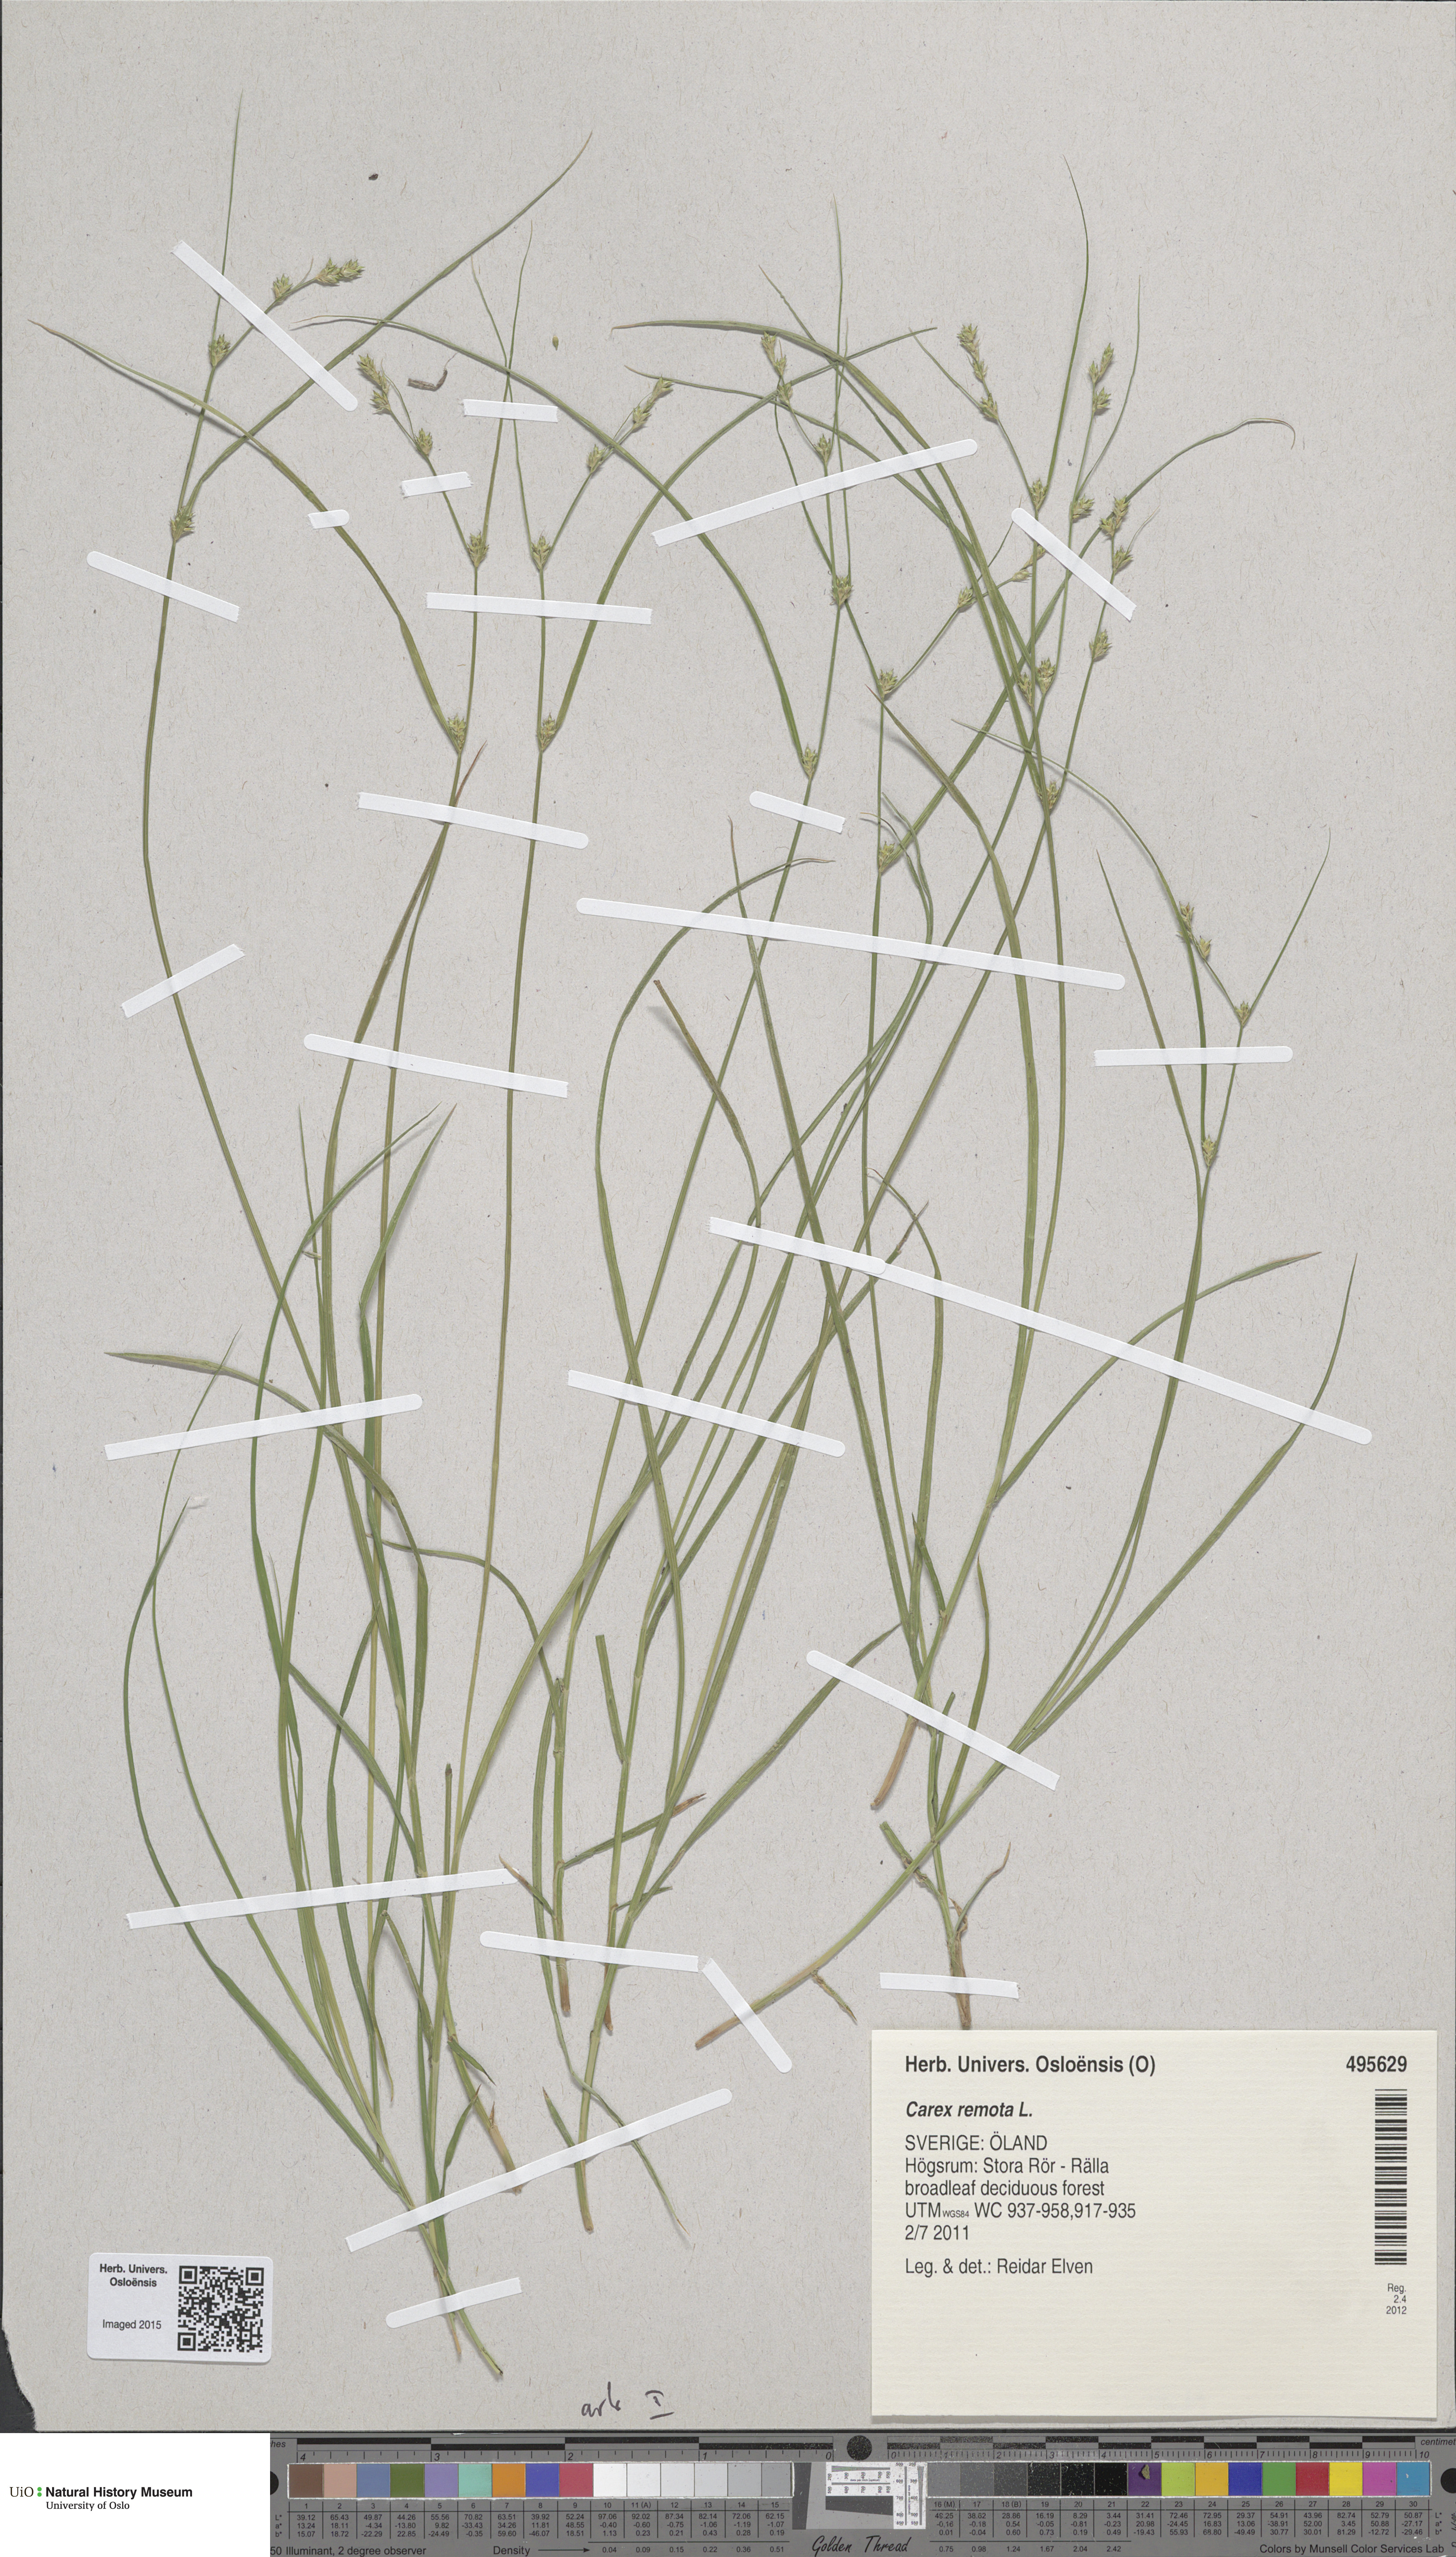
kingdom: Plantae
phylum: Tracheophyta
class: Liliopsida
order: Poales
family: Cyperaceae
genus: Carex
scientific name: Carex remota
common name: Remote sedge
